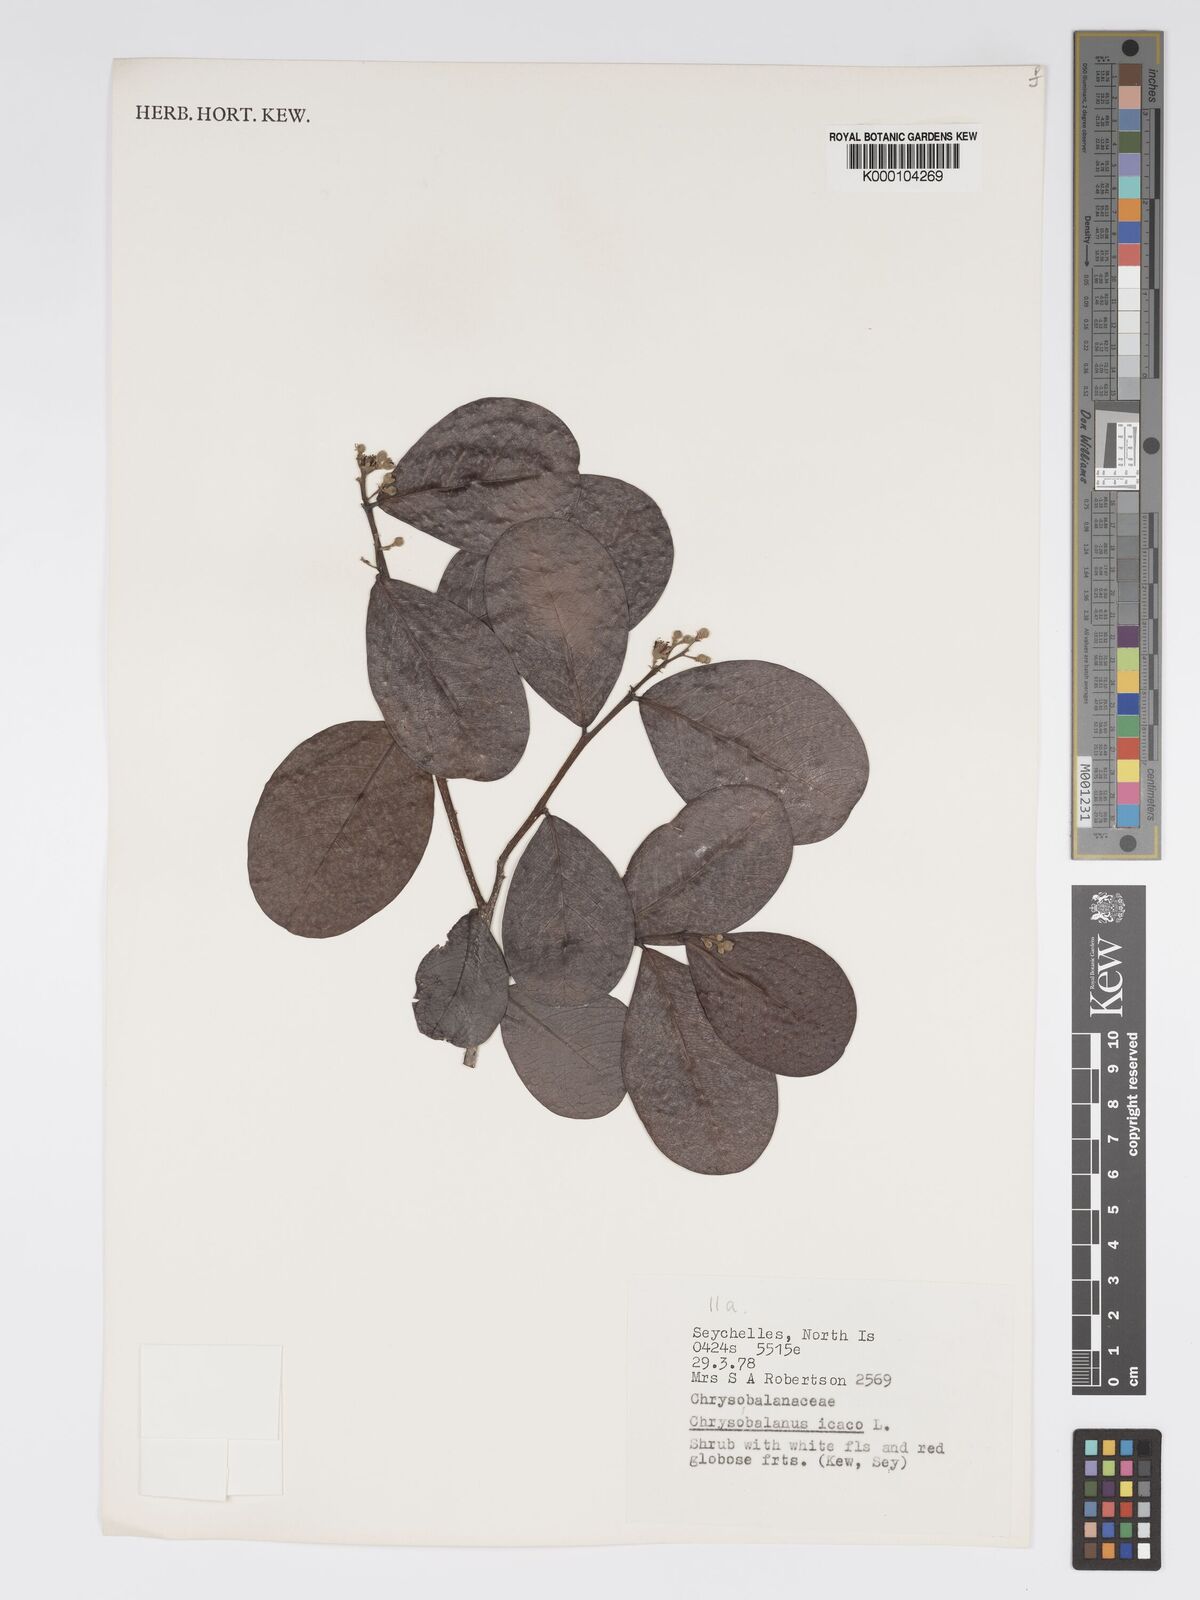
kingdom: Plantae
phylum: Tracheophyta
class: Magnoliopsida
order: Malpighiales
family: Chrysobalanaceae
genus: Chrysobalanus
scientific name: Chrysobalanus icaco
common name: Coco plum
